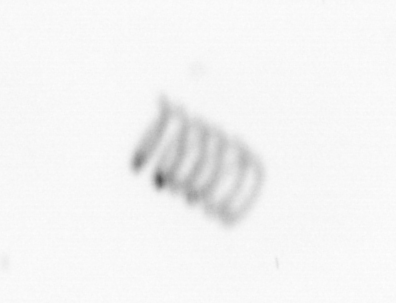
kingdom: Chromista
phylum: Ochrophyta
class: Bacillariophyceae
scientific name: Bacillariophyceae
